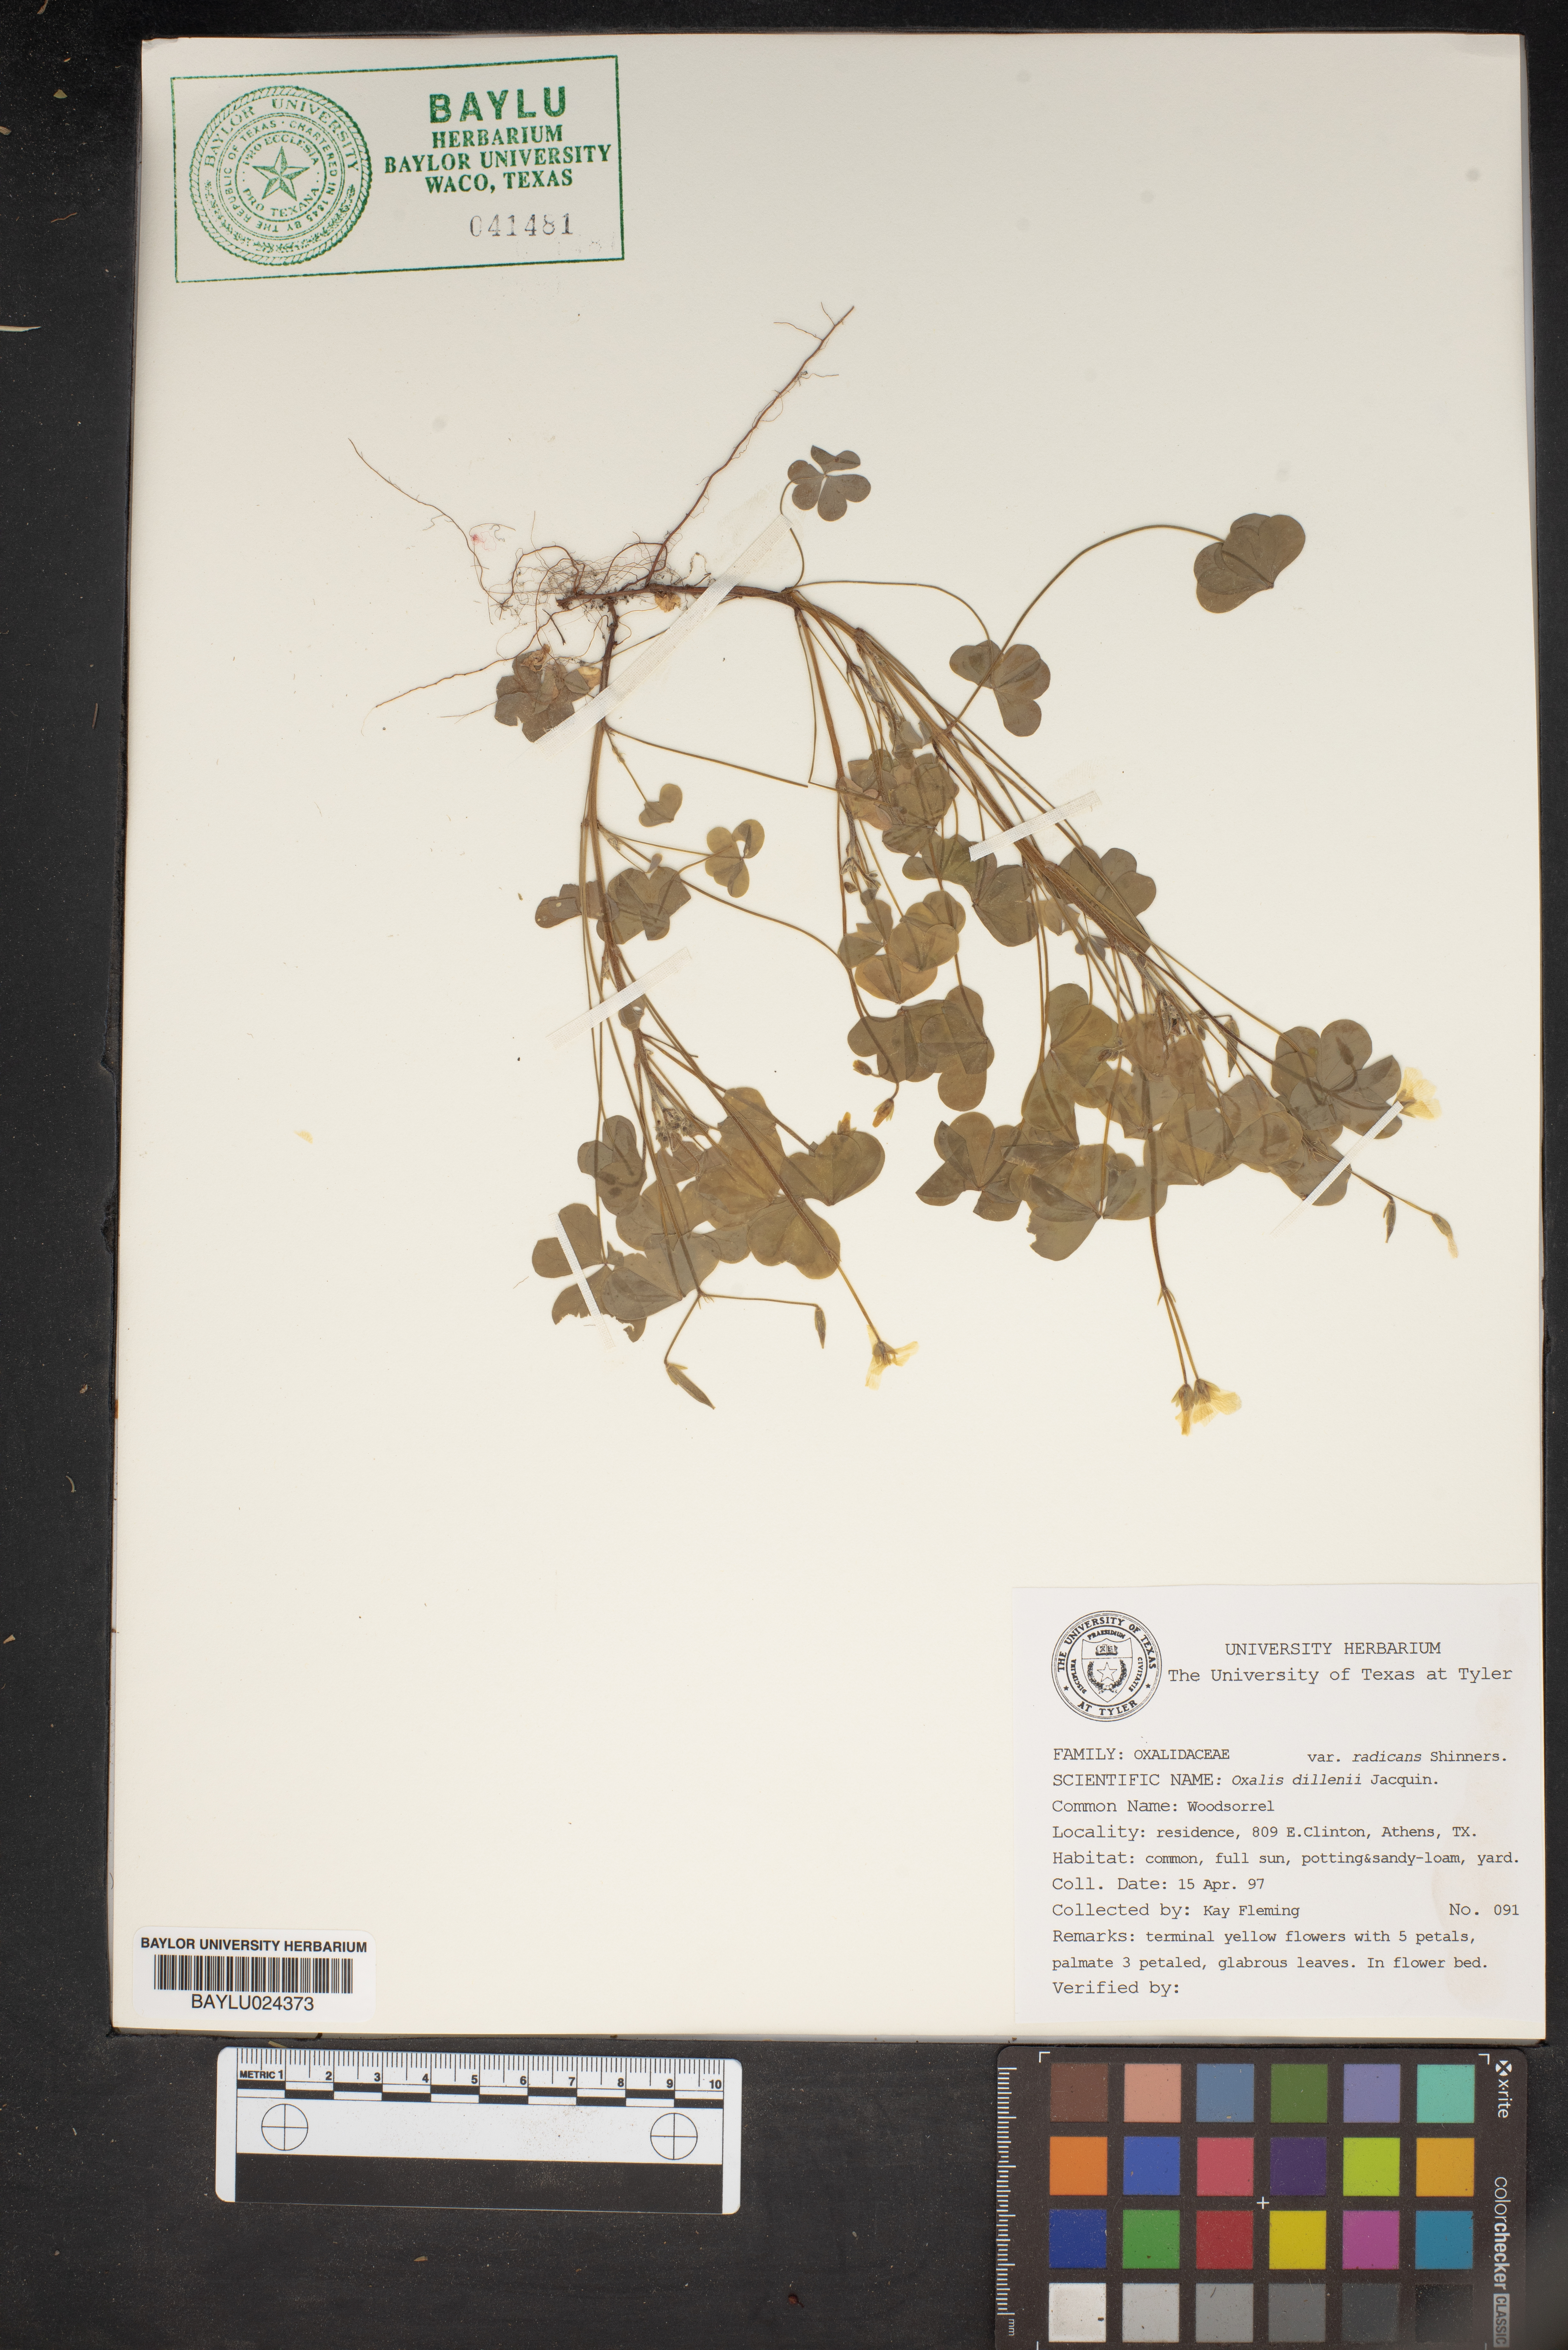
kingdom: Plantae
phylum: Tracheophyta
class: Magnoliopsida
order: Oxalidales
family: Oxalidaceae
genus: Oxalis
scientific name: Oxalis dillenii
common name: Sussex yellow-sorrel
